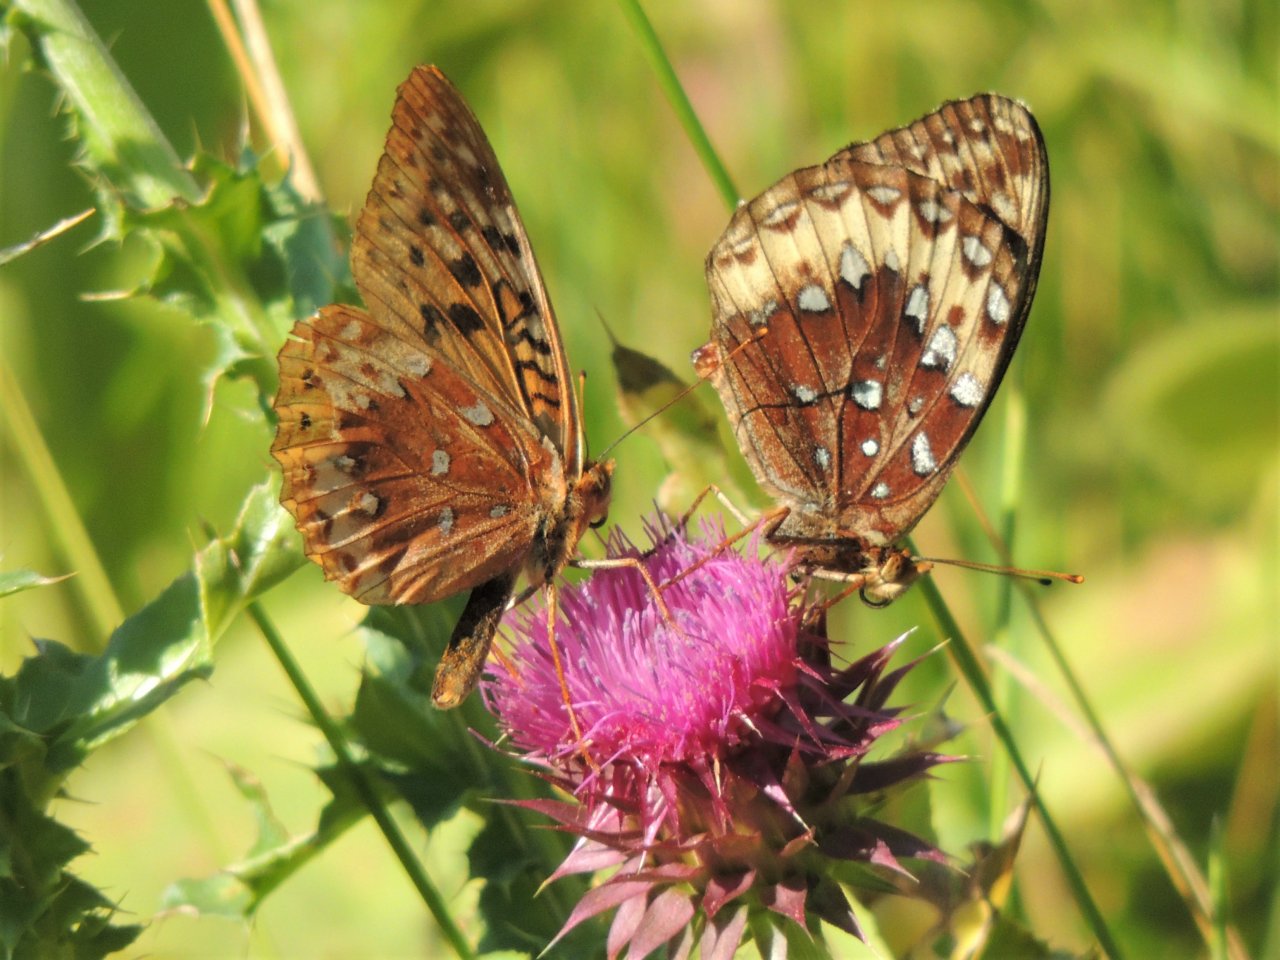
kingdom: Animalia
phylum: Arthropoda
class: Insecta
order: Lepidoptera
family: Nymphalidae
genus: Speyeria
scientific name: Speyeria cybele
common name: Great Spangled Fritillary
